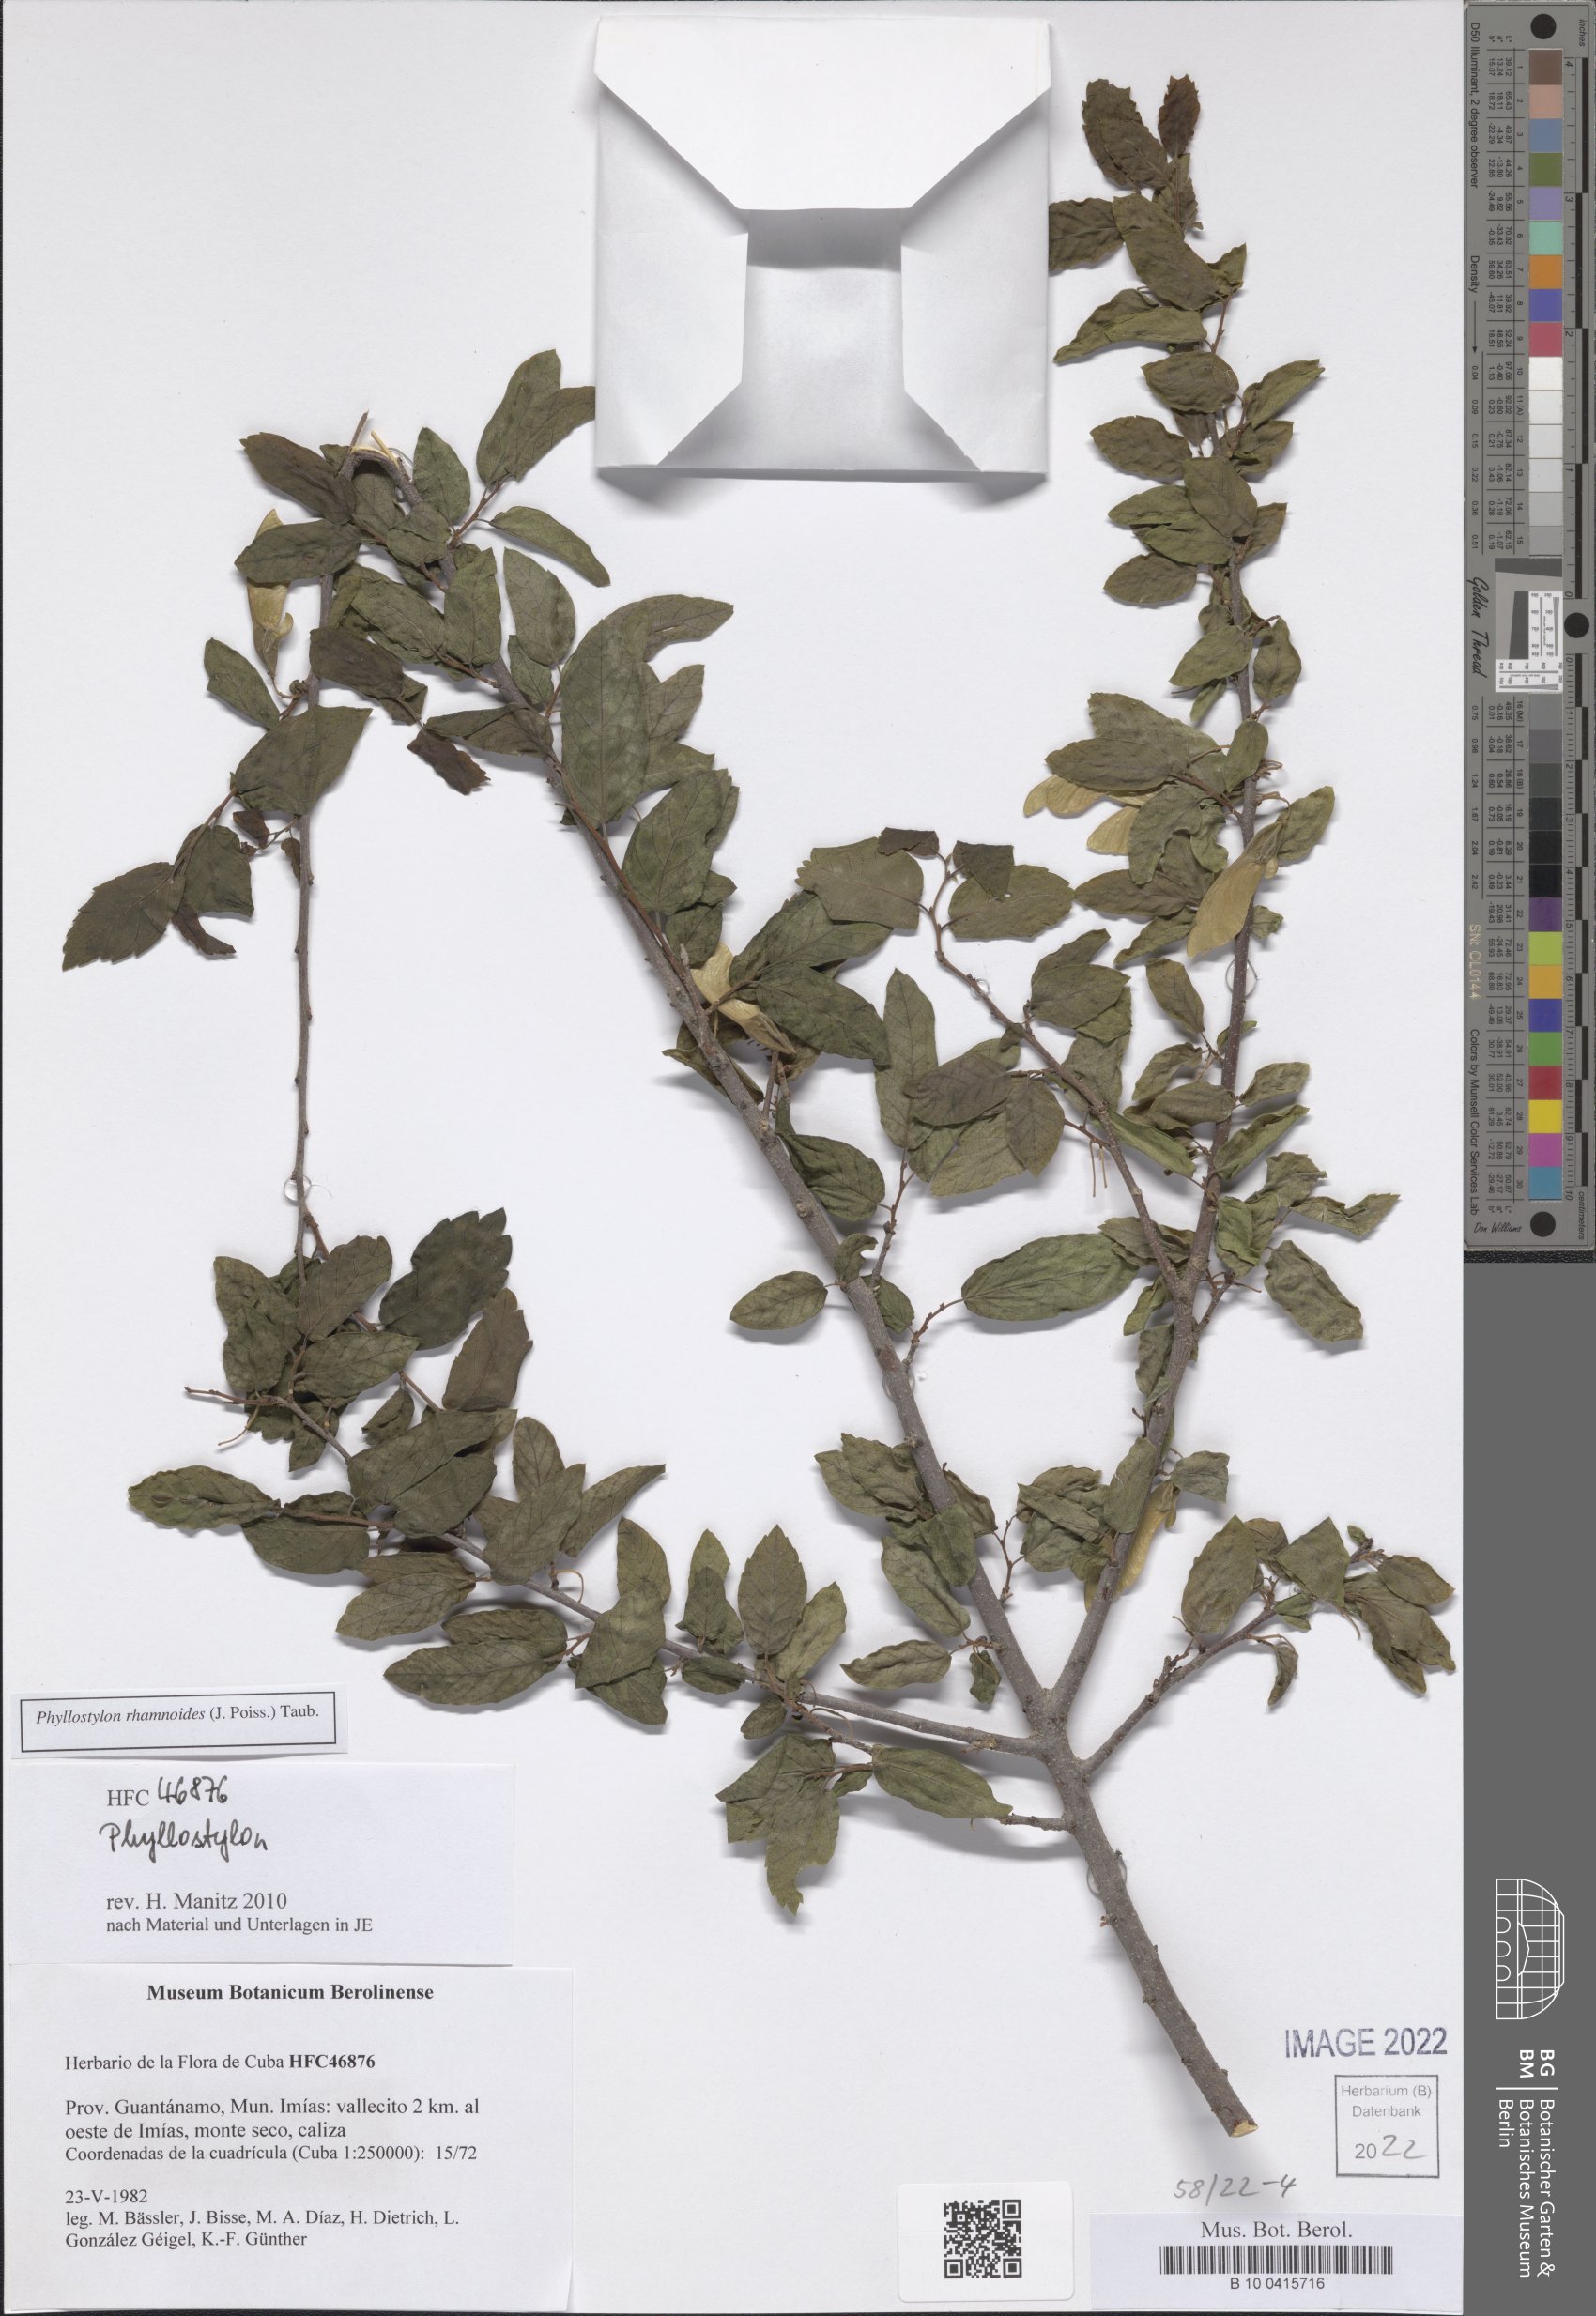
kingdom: Plantae
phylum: Tracheophyta
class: Magnoliopsida
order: Rosales
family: Ulmaceae
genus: Phyllostylon
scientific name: Phyllostylon rhamnoides
